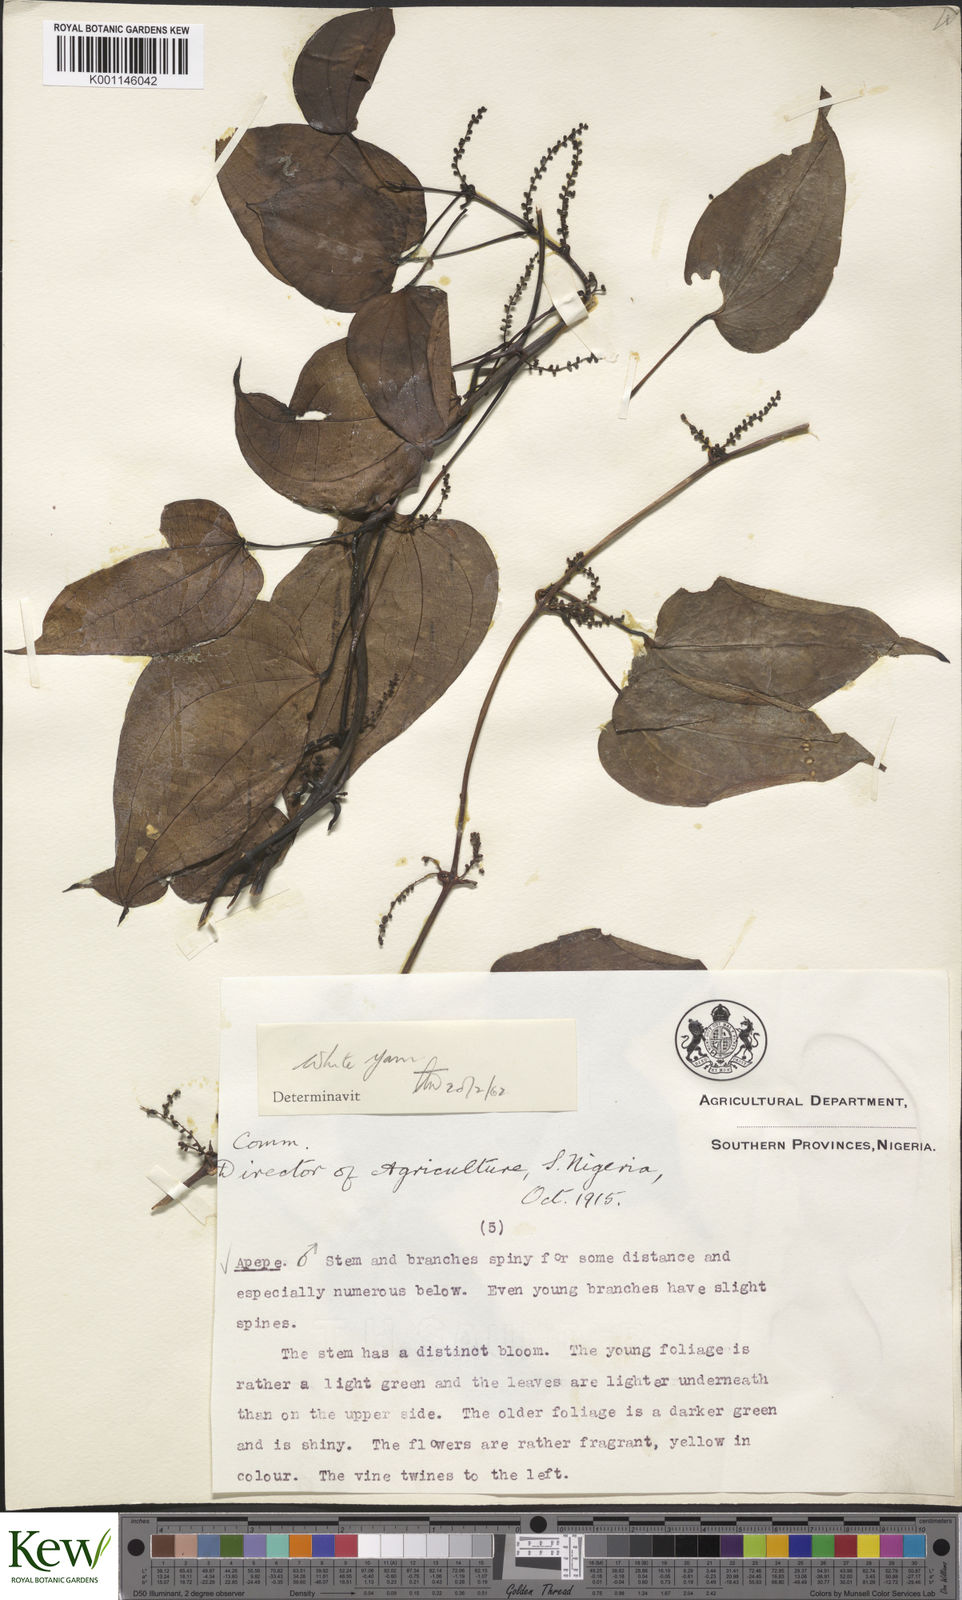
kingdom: Plantae
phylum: Tracheophyta
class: Liliopsida
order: Dioscoreales
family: Dioscoreaceae
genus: Dioscorea
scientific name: Dioscorea baya
